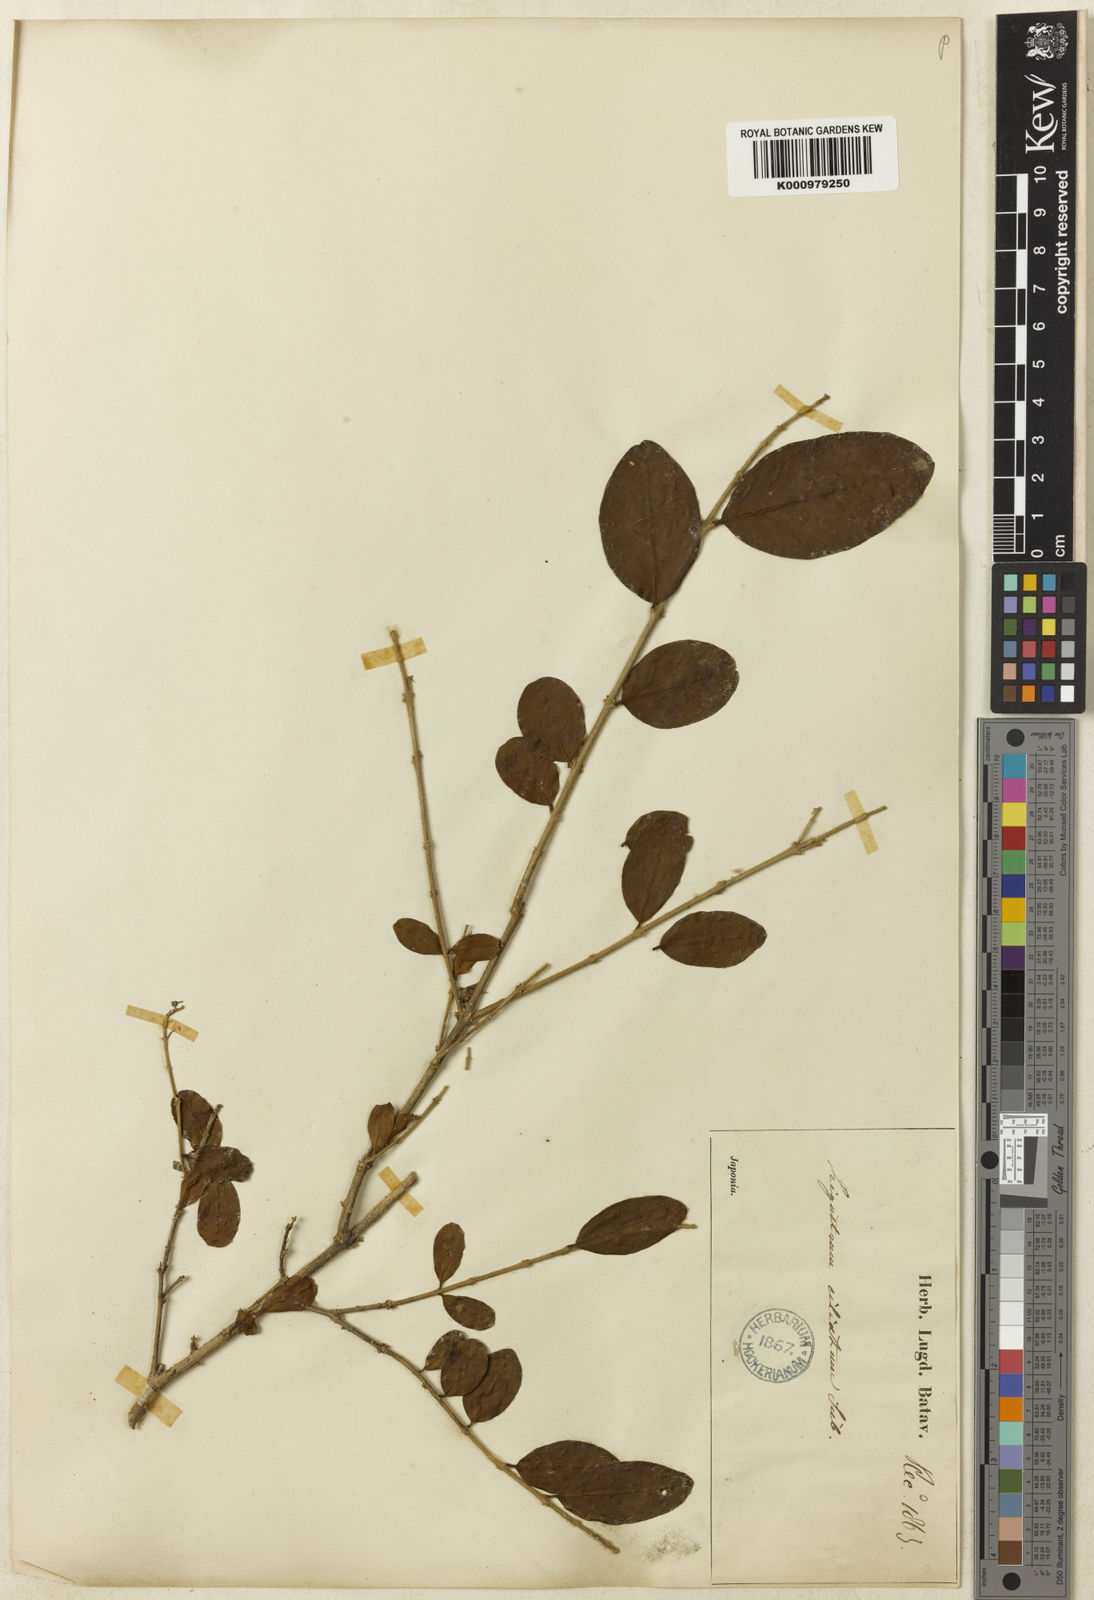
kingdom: Plantae
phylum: Tracheophyta
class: Magnoliopsida
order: Lamiales
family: Oleaceae
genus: Ligustrum
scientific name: Ligustrum ibota
